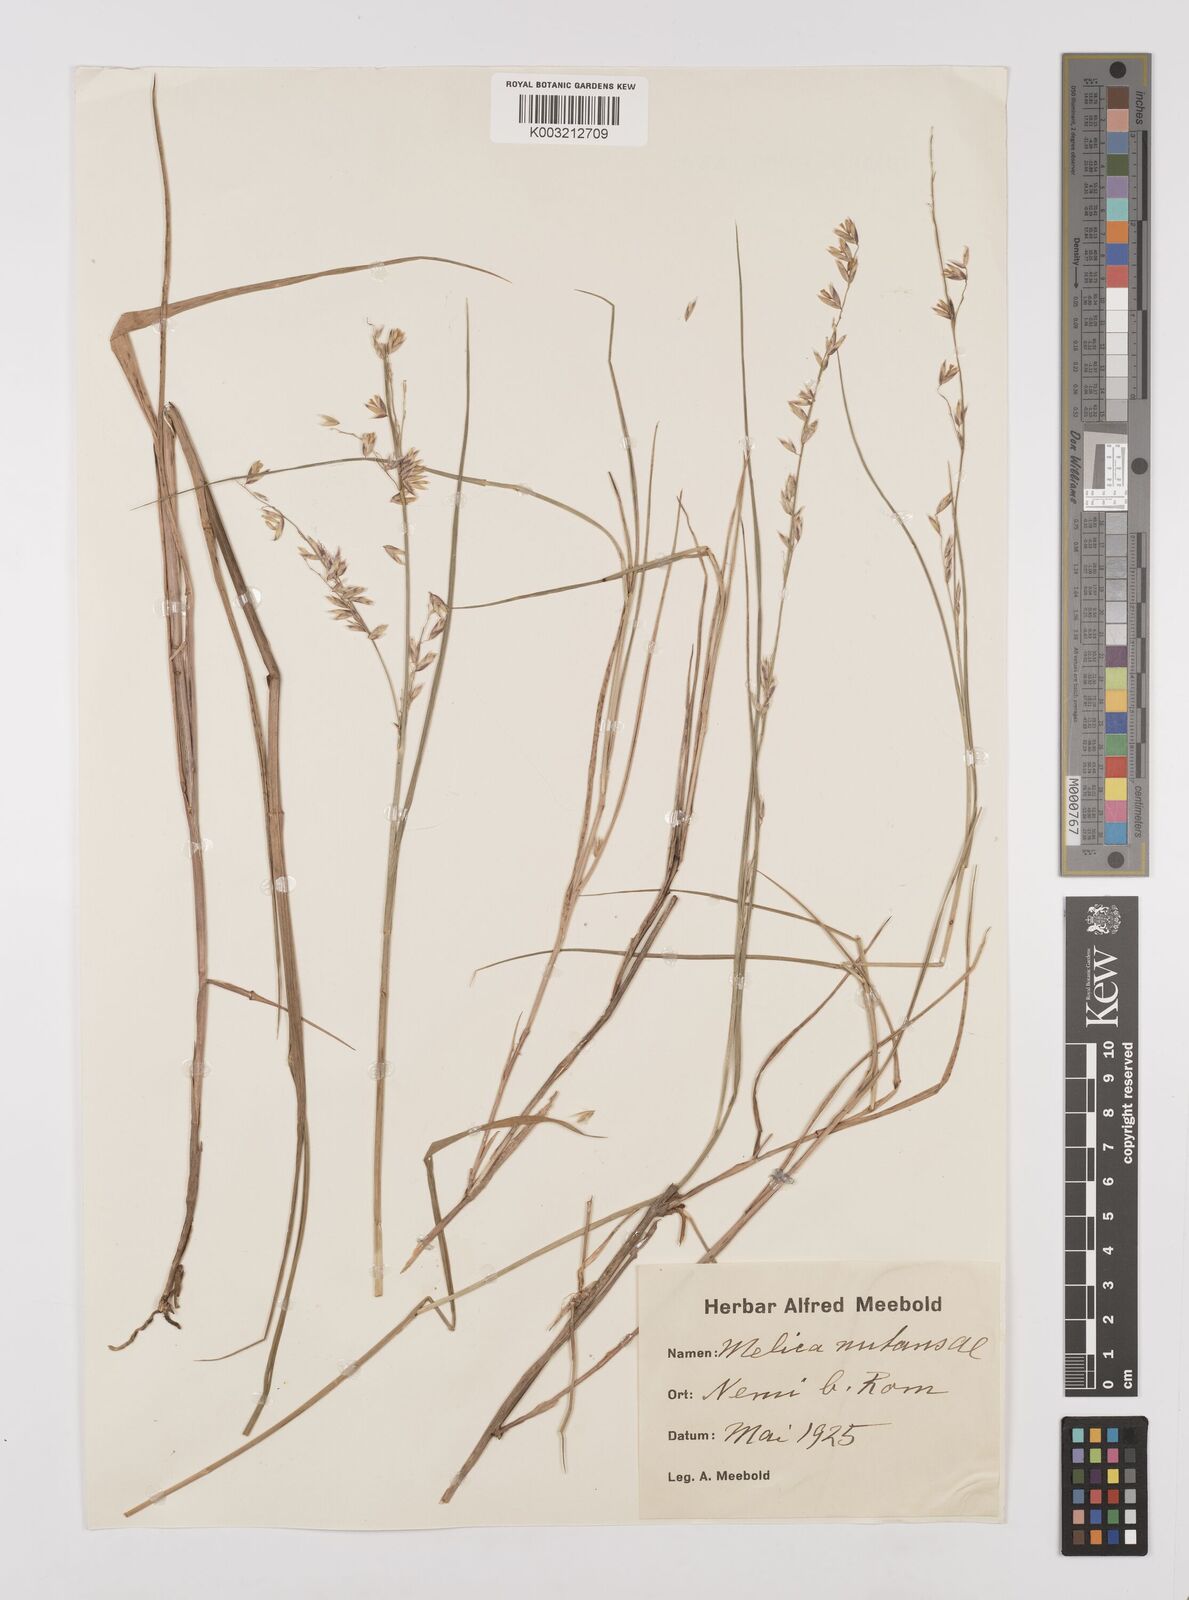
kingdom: Plantae
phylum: Tracheophyta
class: Liliopsida
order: Poales
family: Poaceae
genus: Melica
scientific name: Melica nutans
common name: Mountain melick
